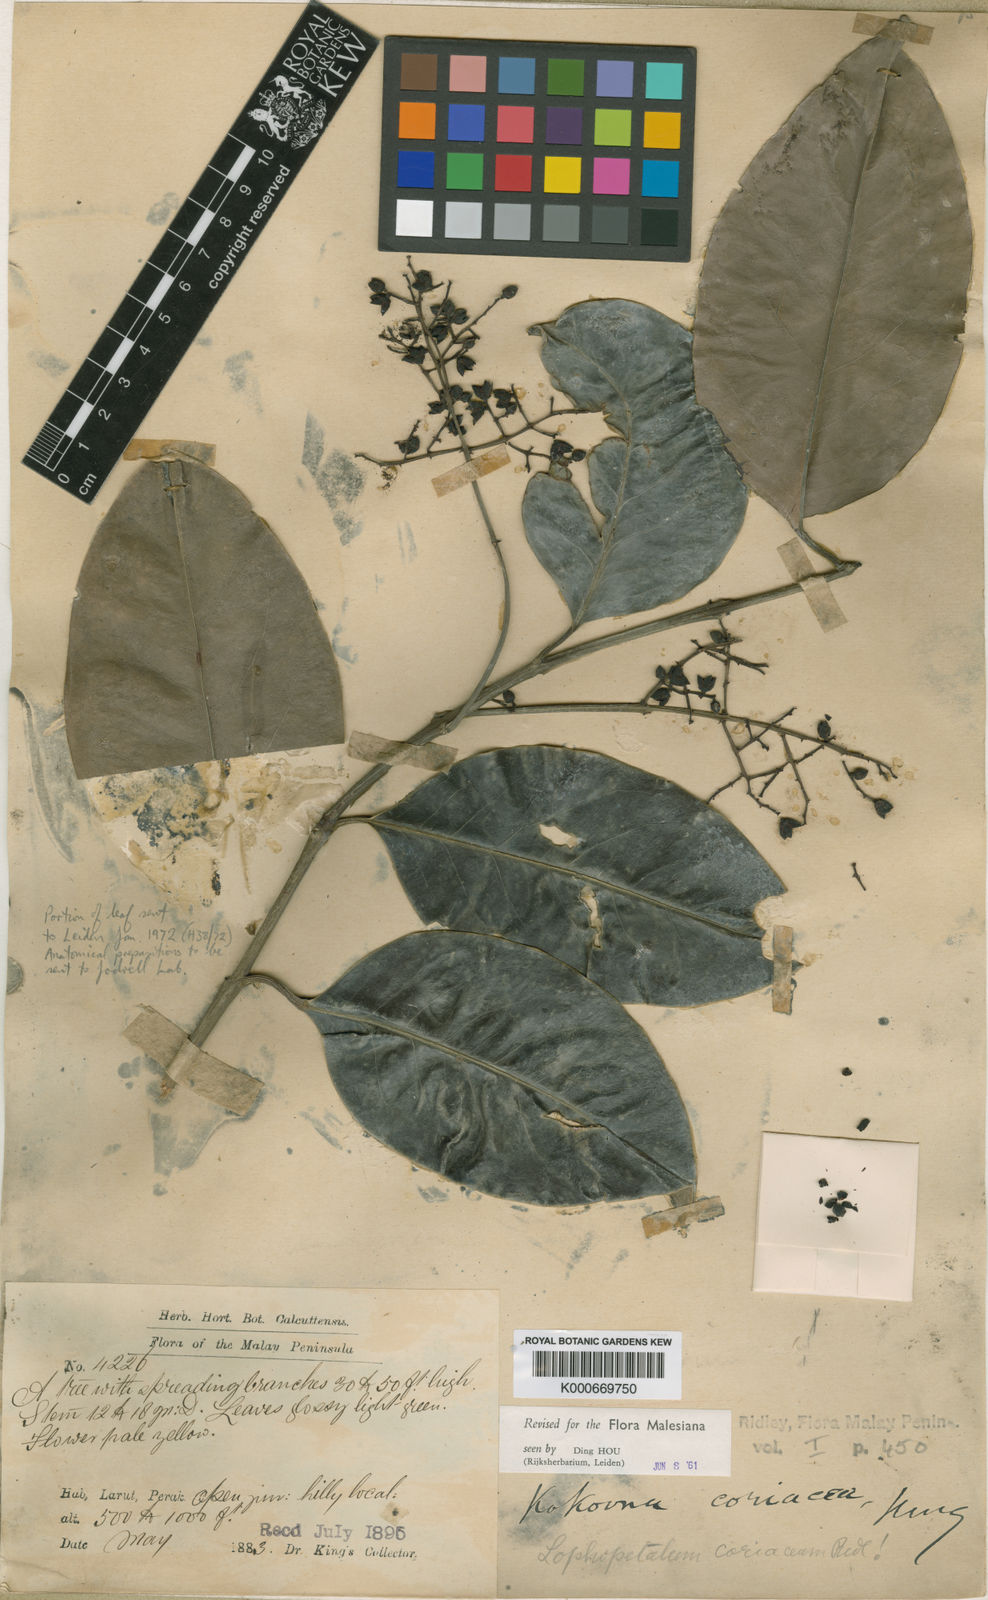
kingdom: Plantae
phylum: Tracheophyta
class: Magnoliopsida
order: Celastrales
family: Celastraceae
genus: Kokoona
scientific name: Kokoona coriacea
